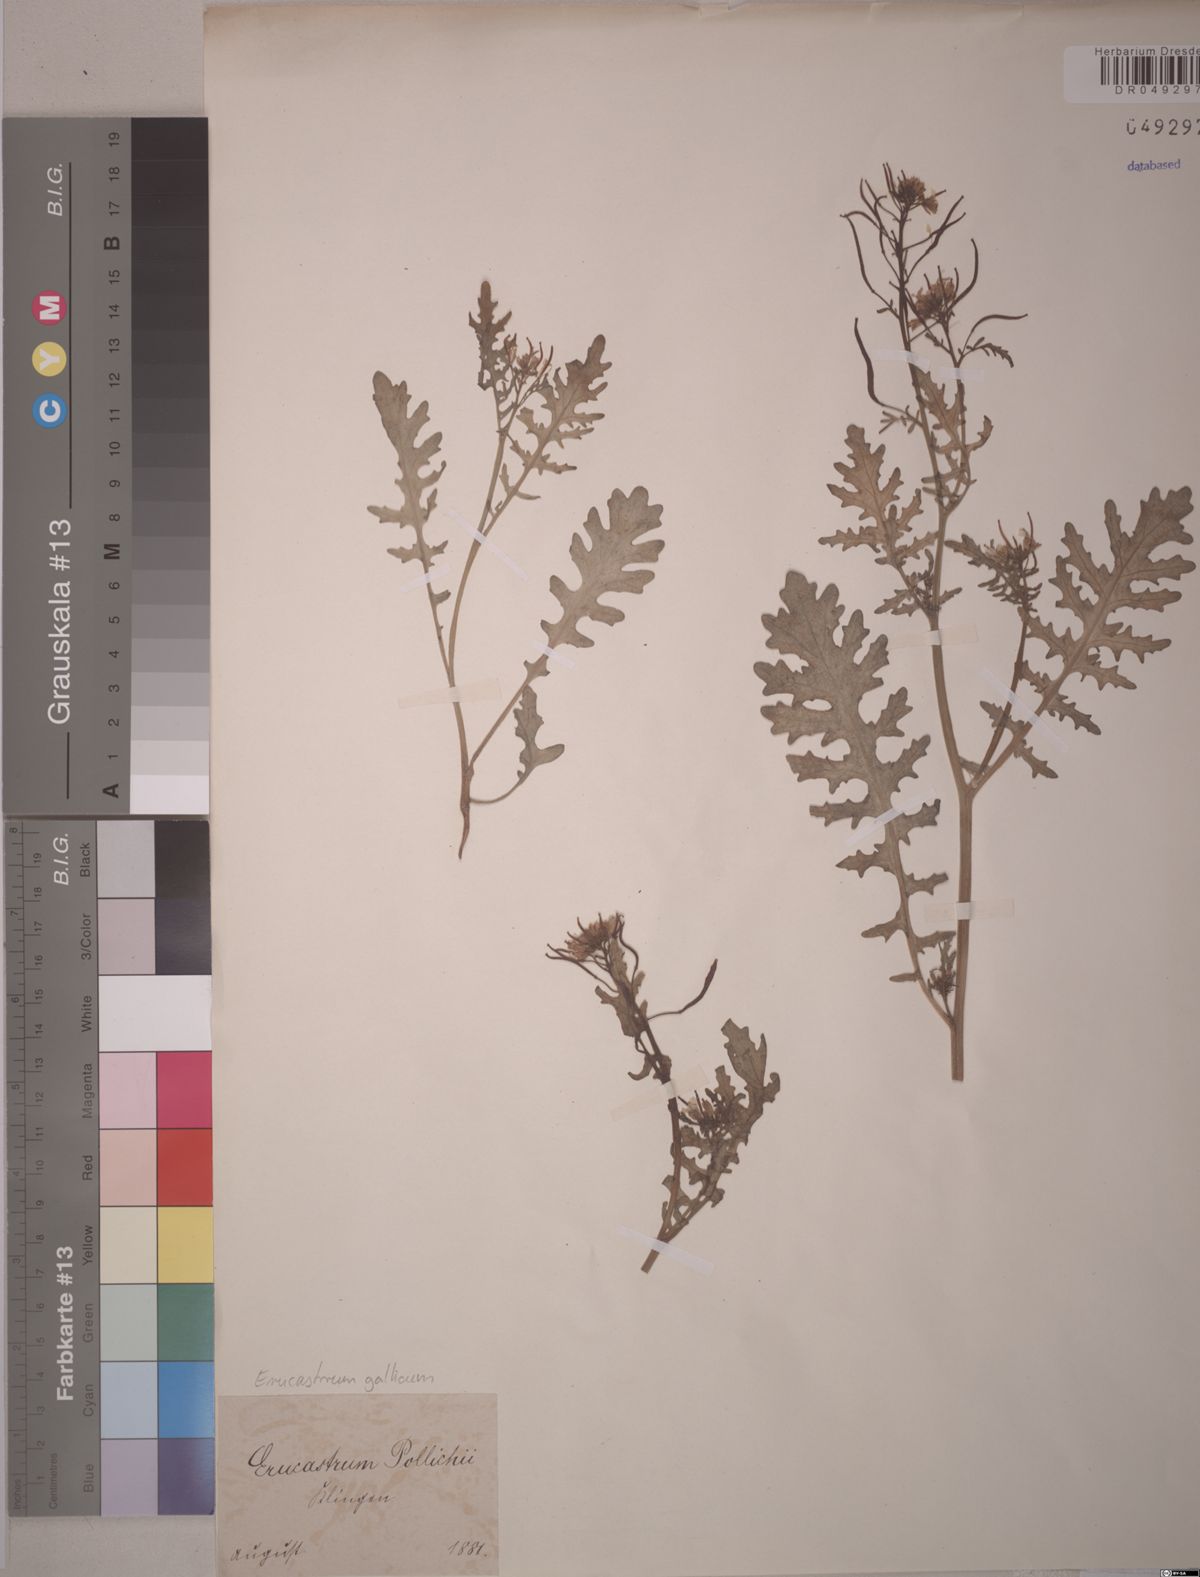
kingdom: Plantae
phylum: Tracheophyta
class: Magnoliopsida
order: Brassicales
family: Brassicaceae
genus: Erucastrum
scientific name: Erucastrum gallicum
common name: Hairy rocket
